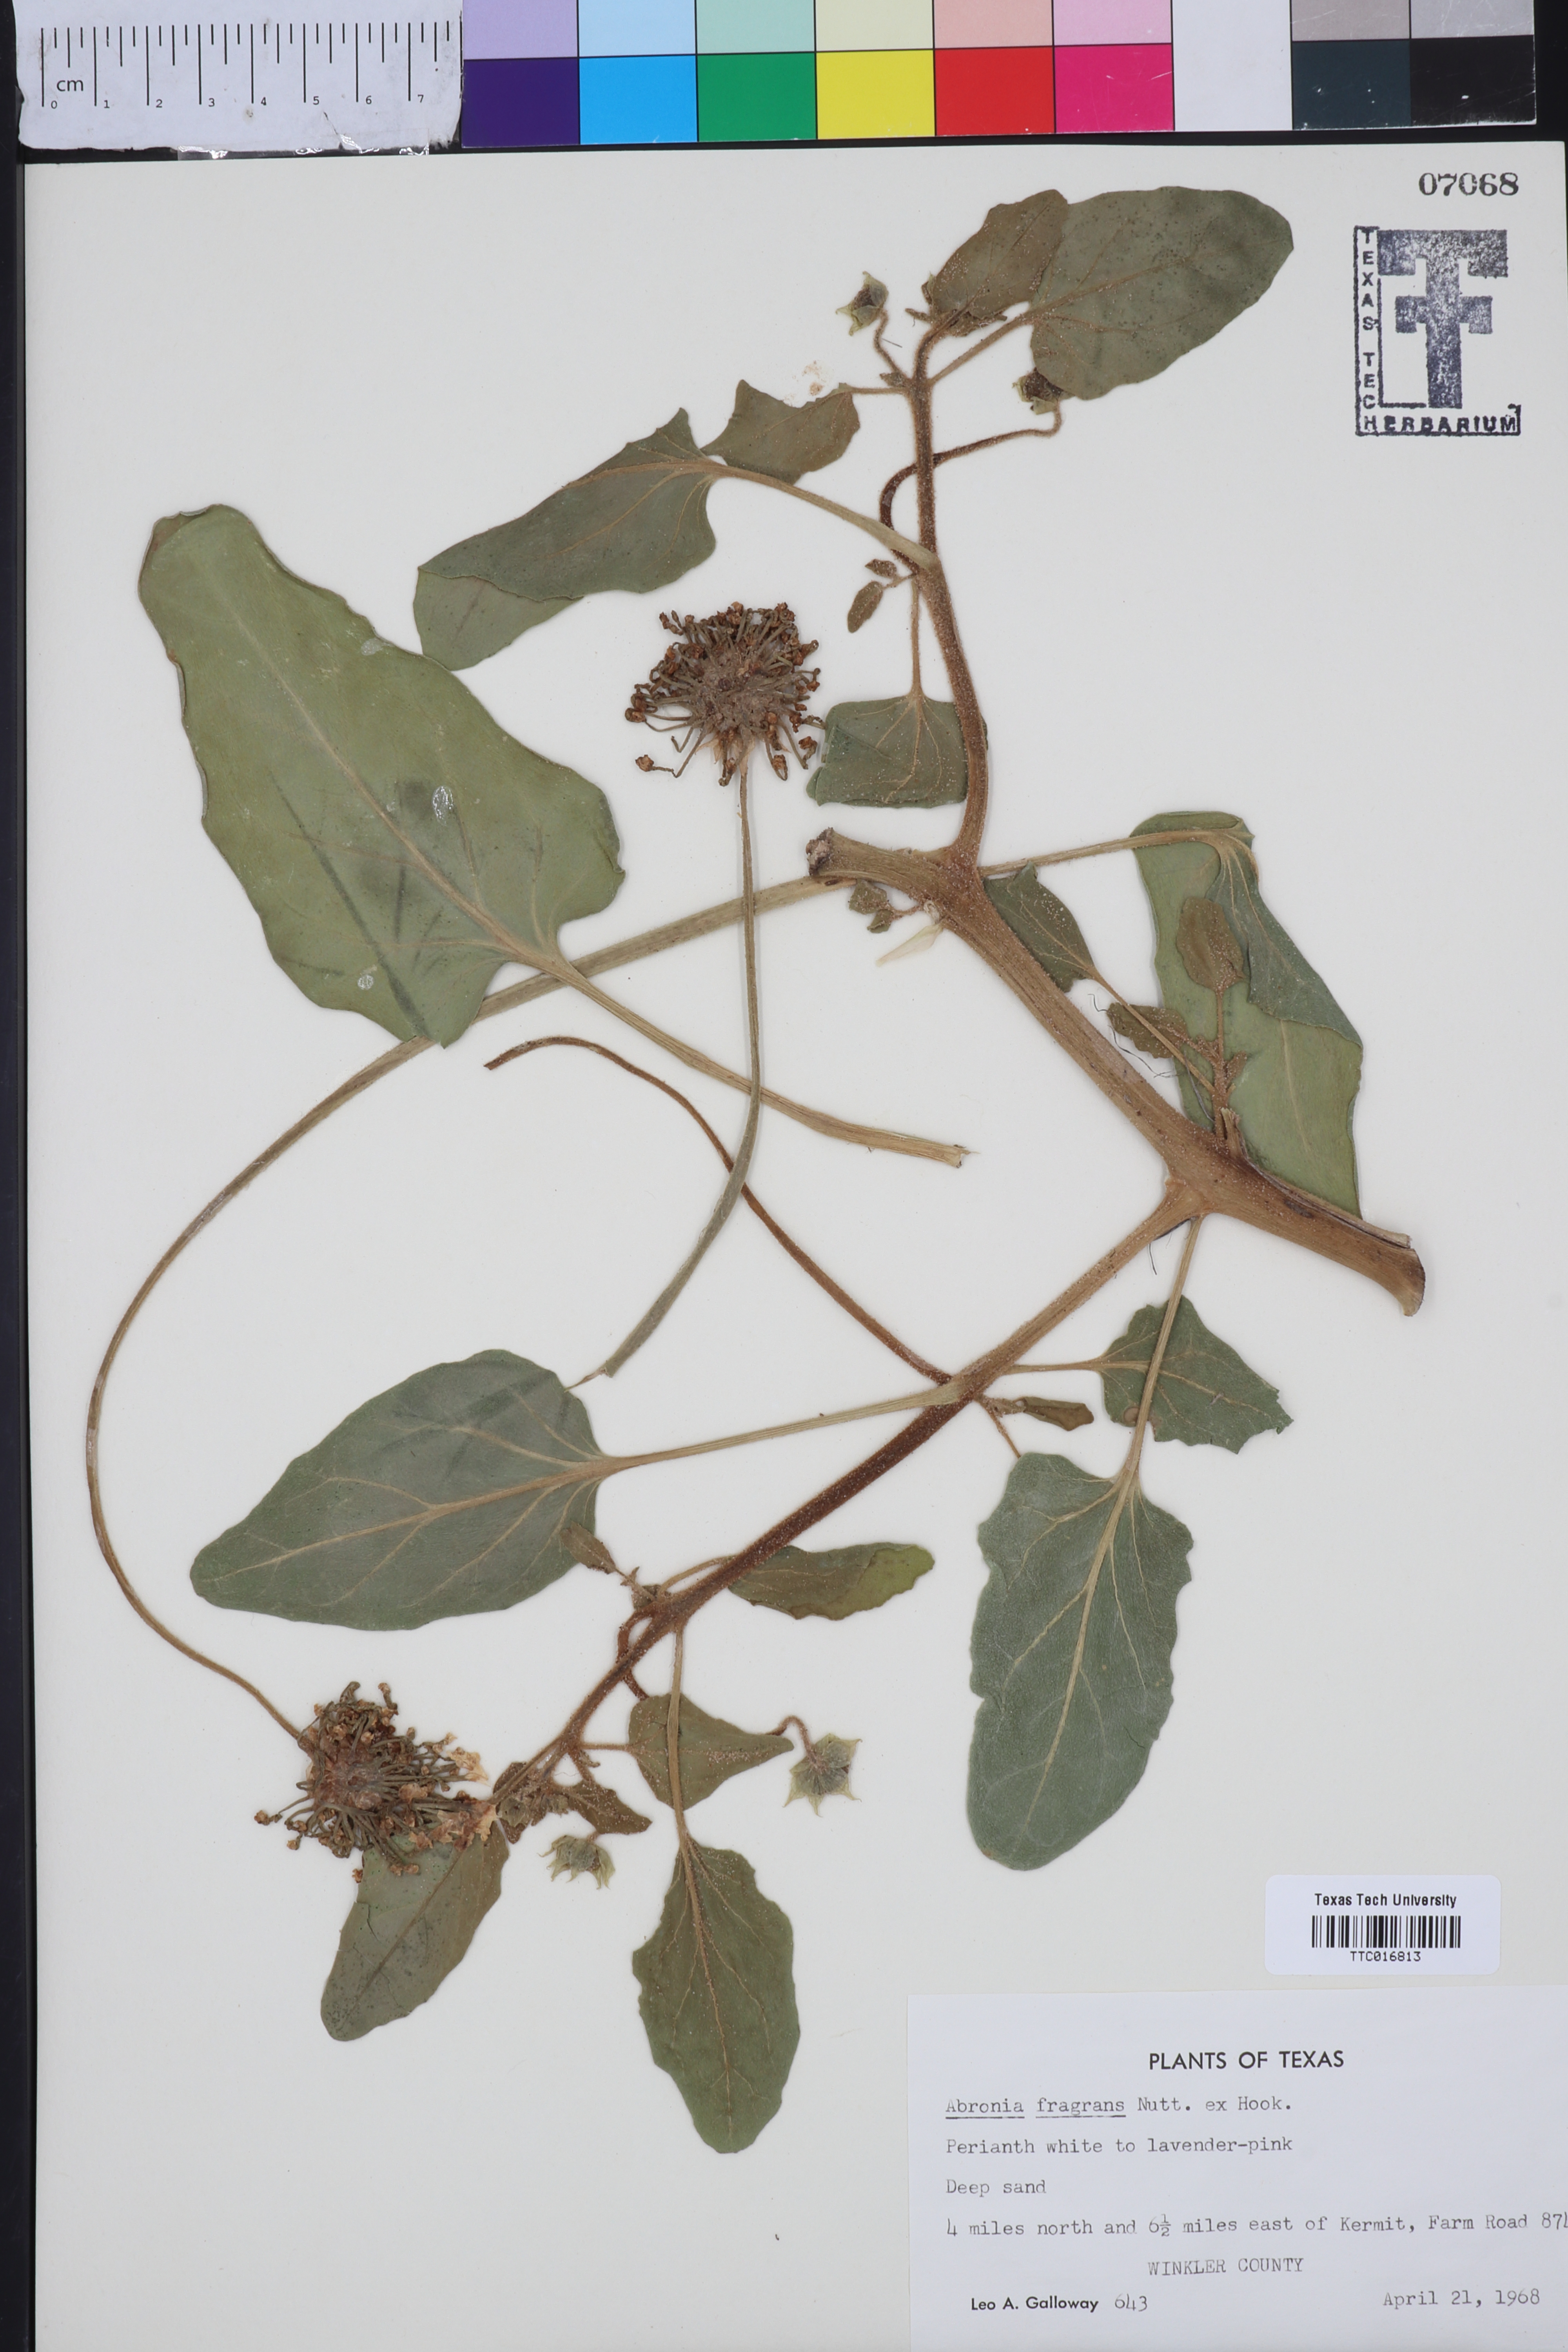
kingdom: Plantae
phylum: Tracheophyta
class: Magnoliopsida
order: Caryophyllales
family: Nyctaginaceae
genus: Abronia
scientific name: Abronia fragrans
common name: Fragrant sand-verbena
